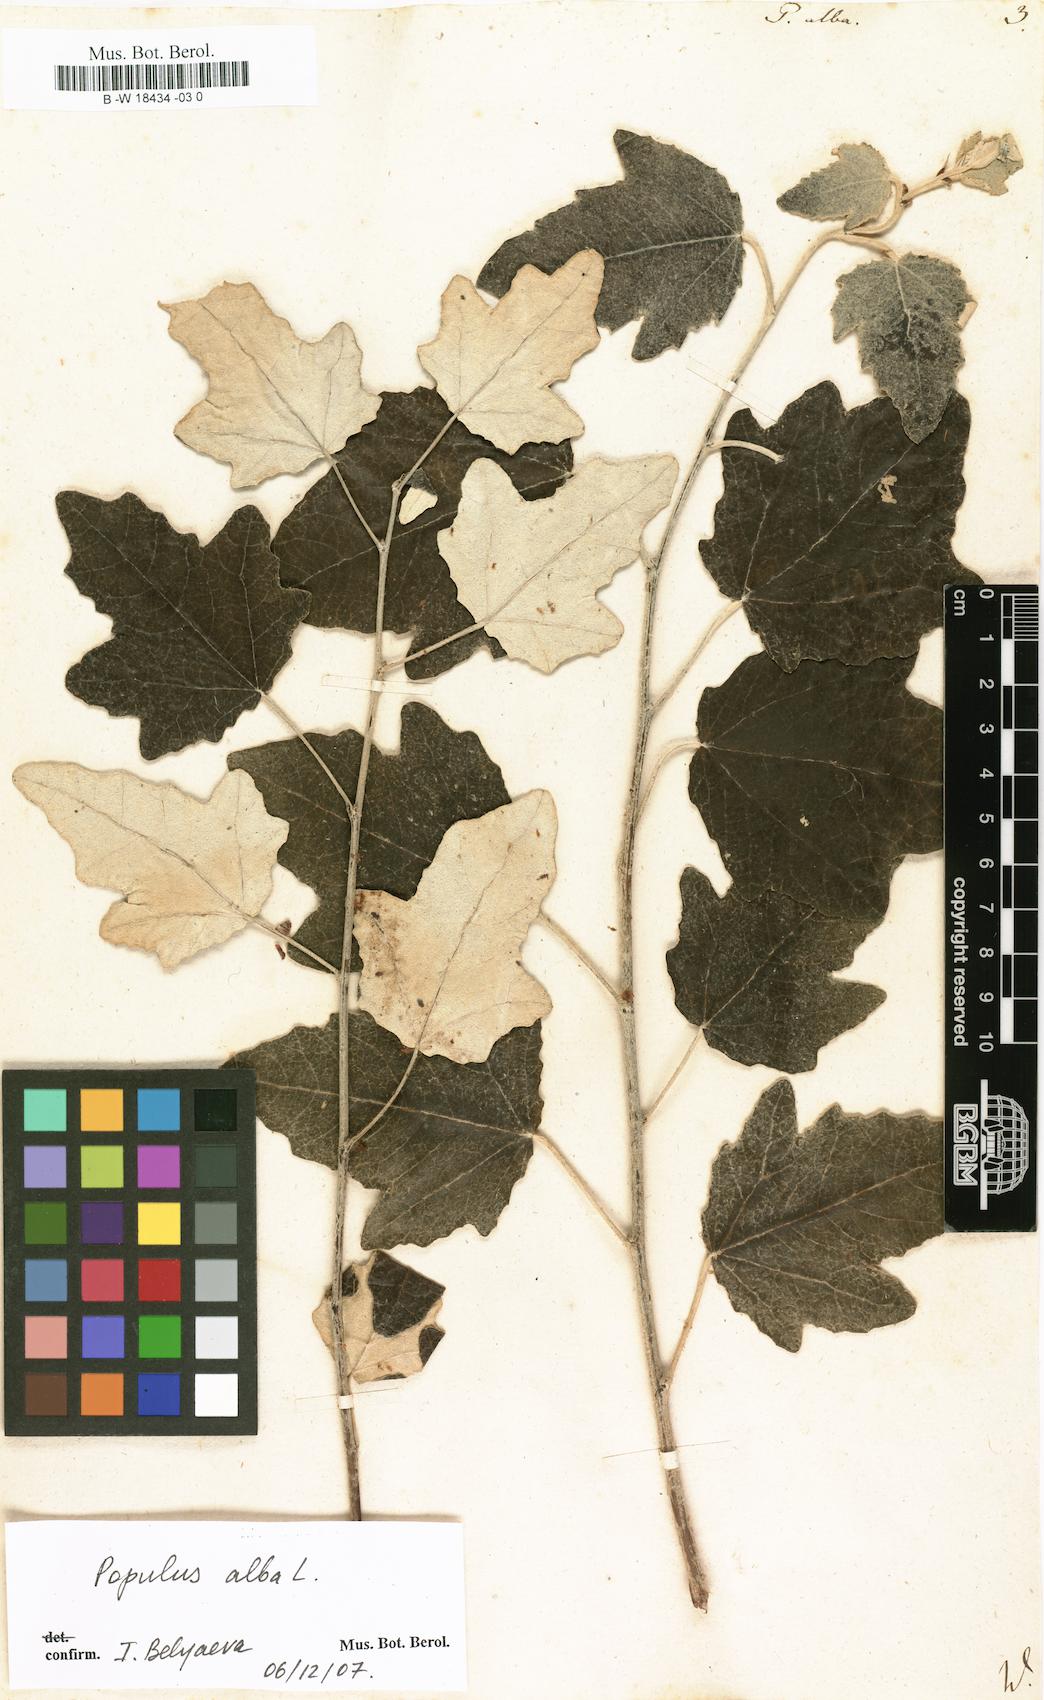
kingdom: Plantae
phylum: Tracheophyta
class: Magnoliopsida
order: Malpighiales
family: Salicaceae
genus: Populus
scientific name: Populus alba
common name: White poplar
